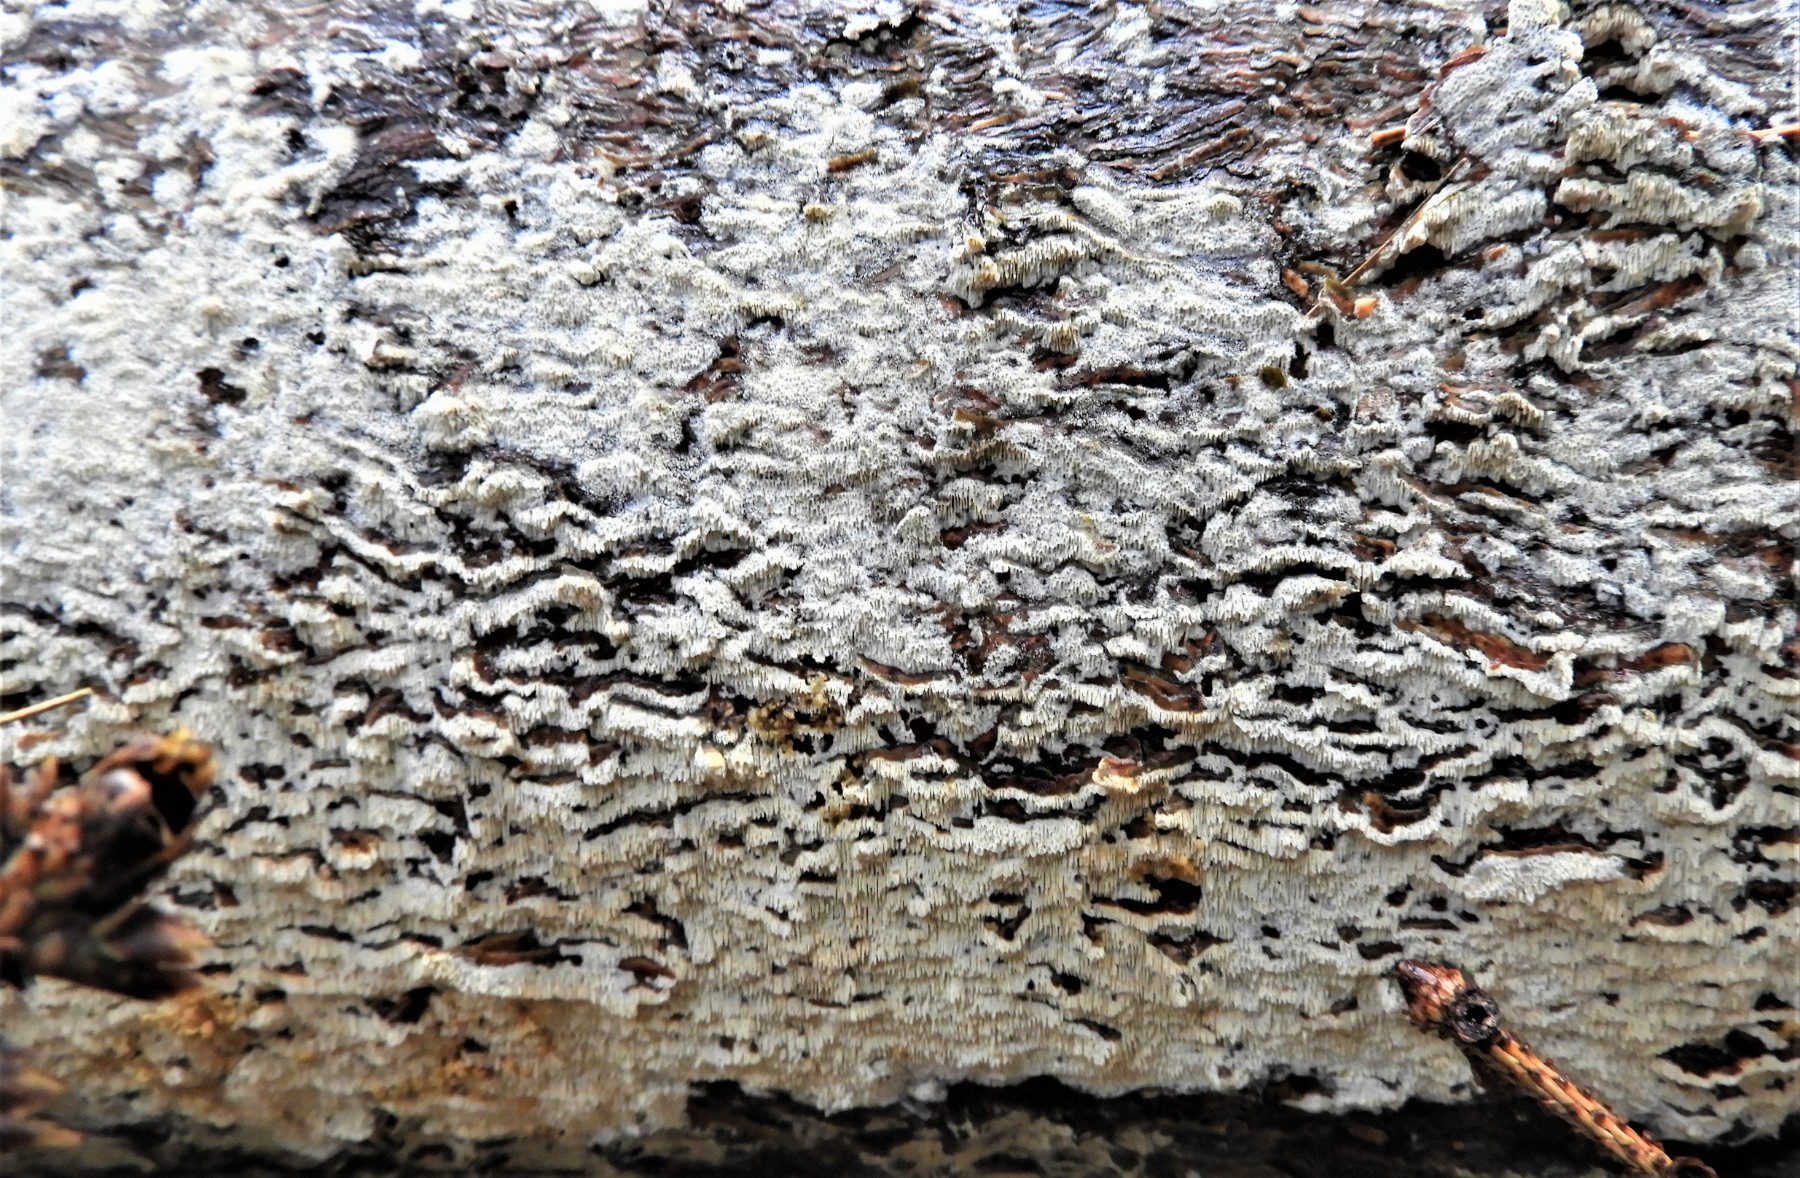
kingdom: Fungi
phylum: Basidiomycota
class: Agaricomycetes
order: Hymenochaetales
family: Schizoporaceae
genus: Schizopora
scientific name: Schizopora paradoxa
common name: hvid tandsvamp
